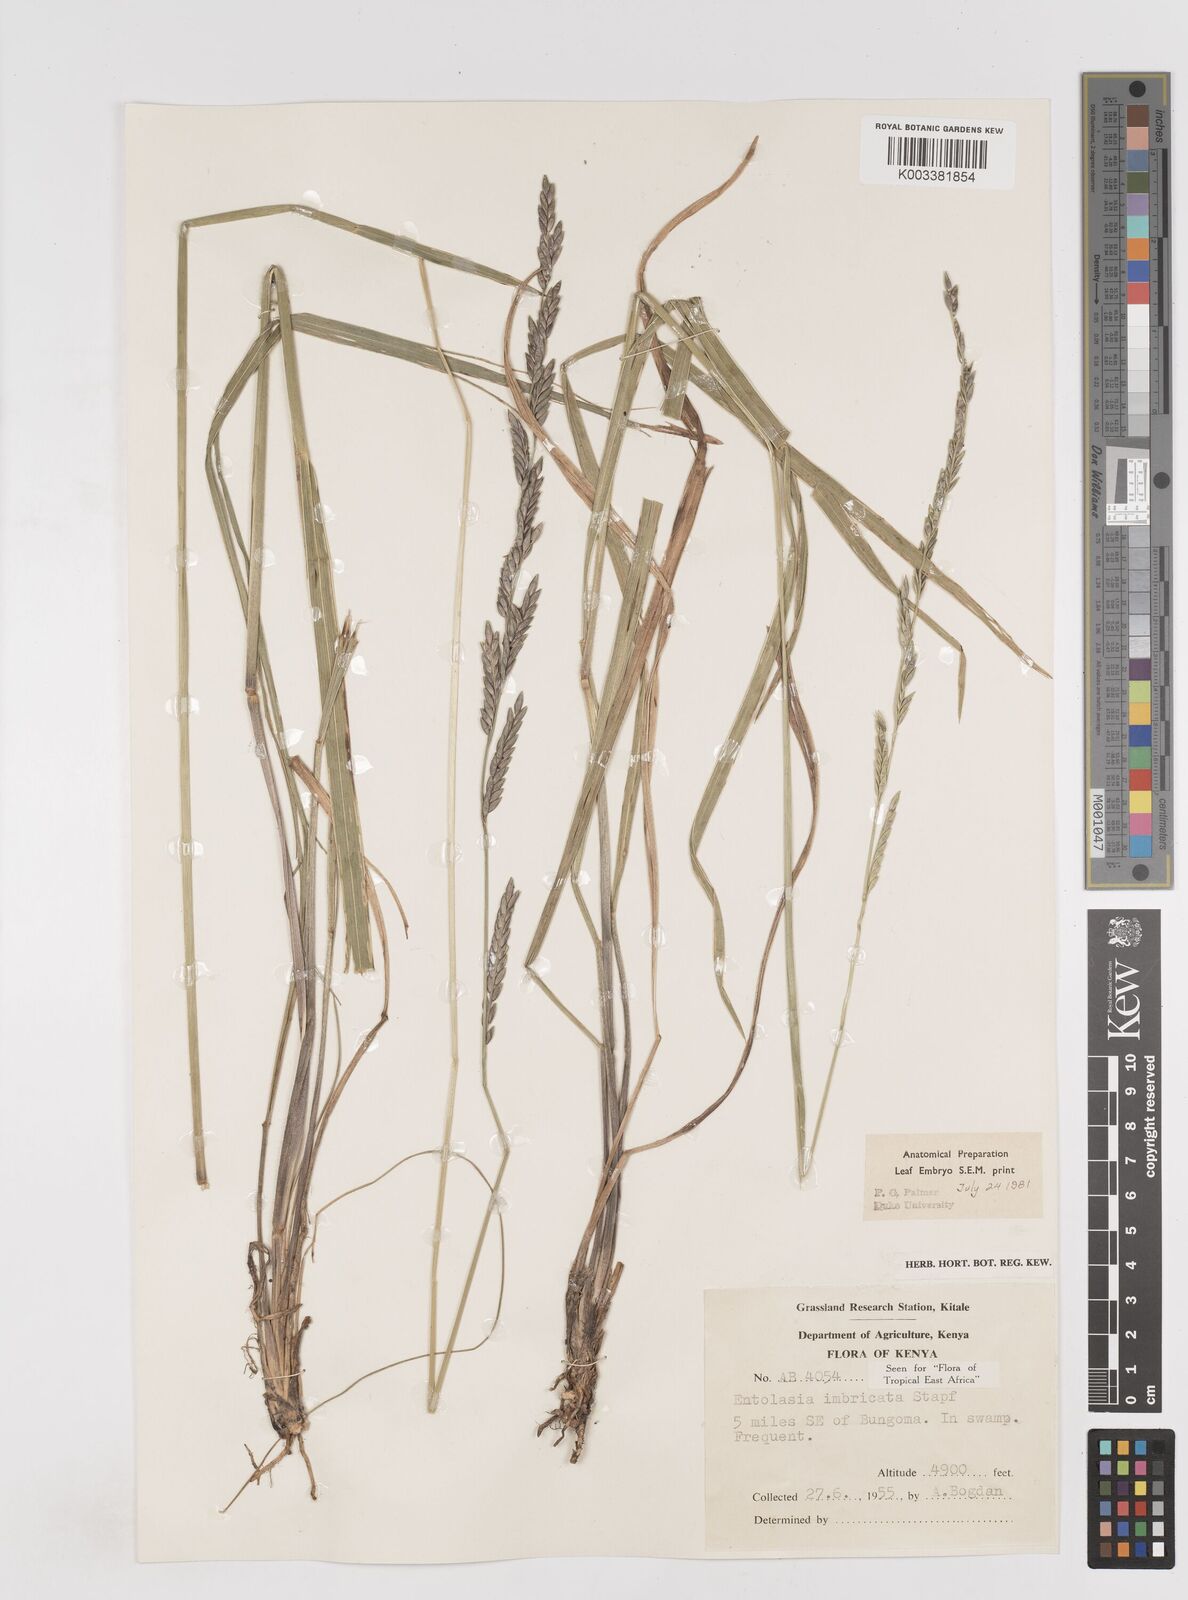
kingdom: Plantae
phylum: Tracheophyta
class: Liliopsida
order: Poales
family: Poaceae
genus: Entolasia
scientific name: Entolasia imbricata
